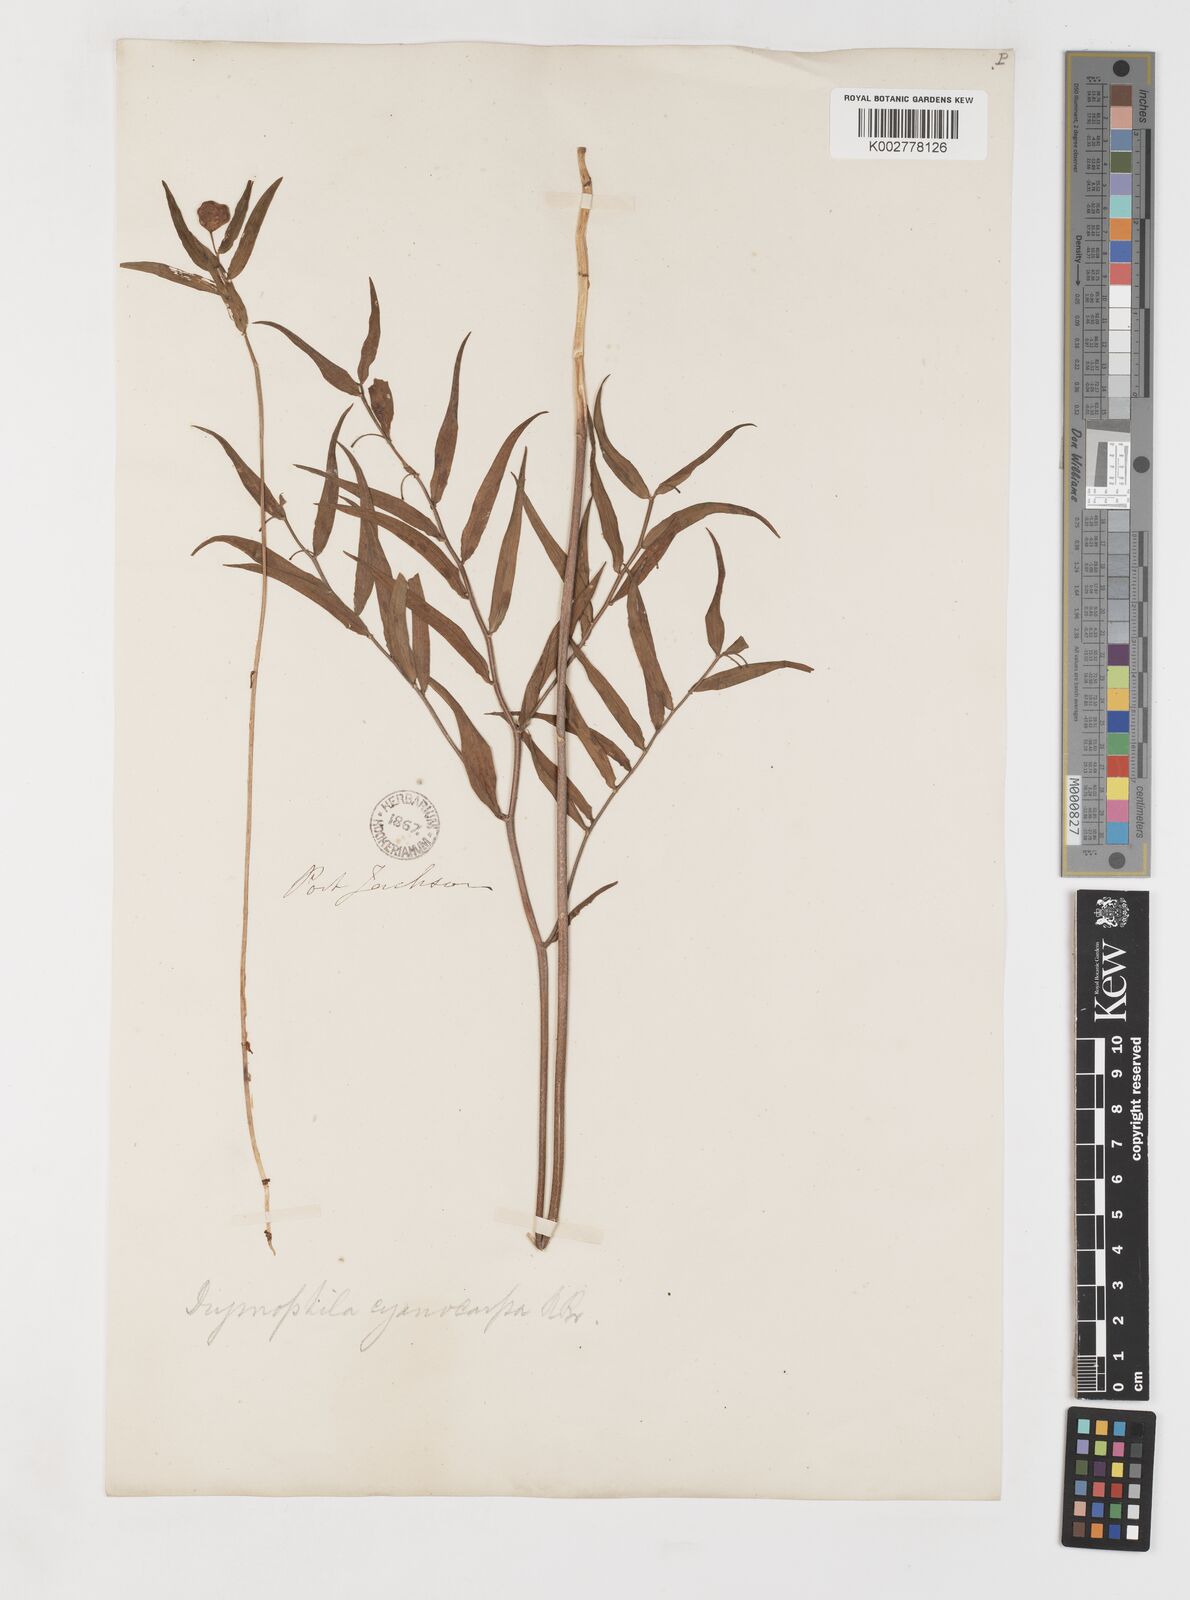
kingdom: Plantae
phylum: Tracheophyta
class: Liliopsida
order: Liliales
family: Alstroemeriaceae
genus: Drymophila
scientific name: Drymophila cyanocarpa
